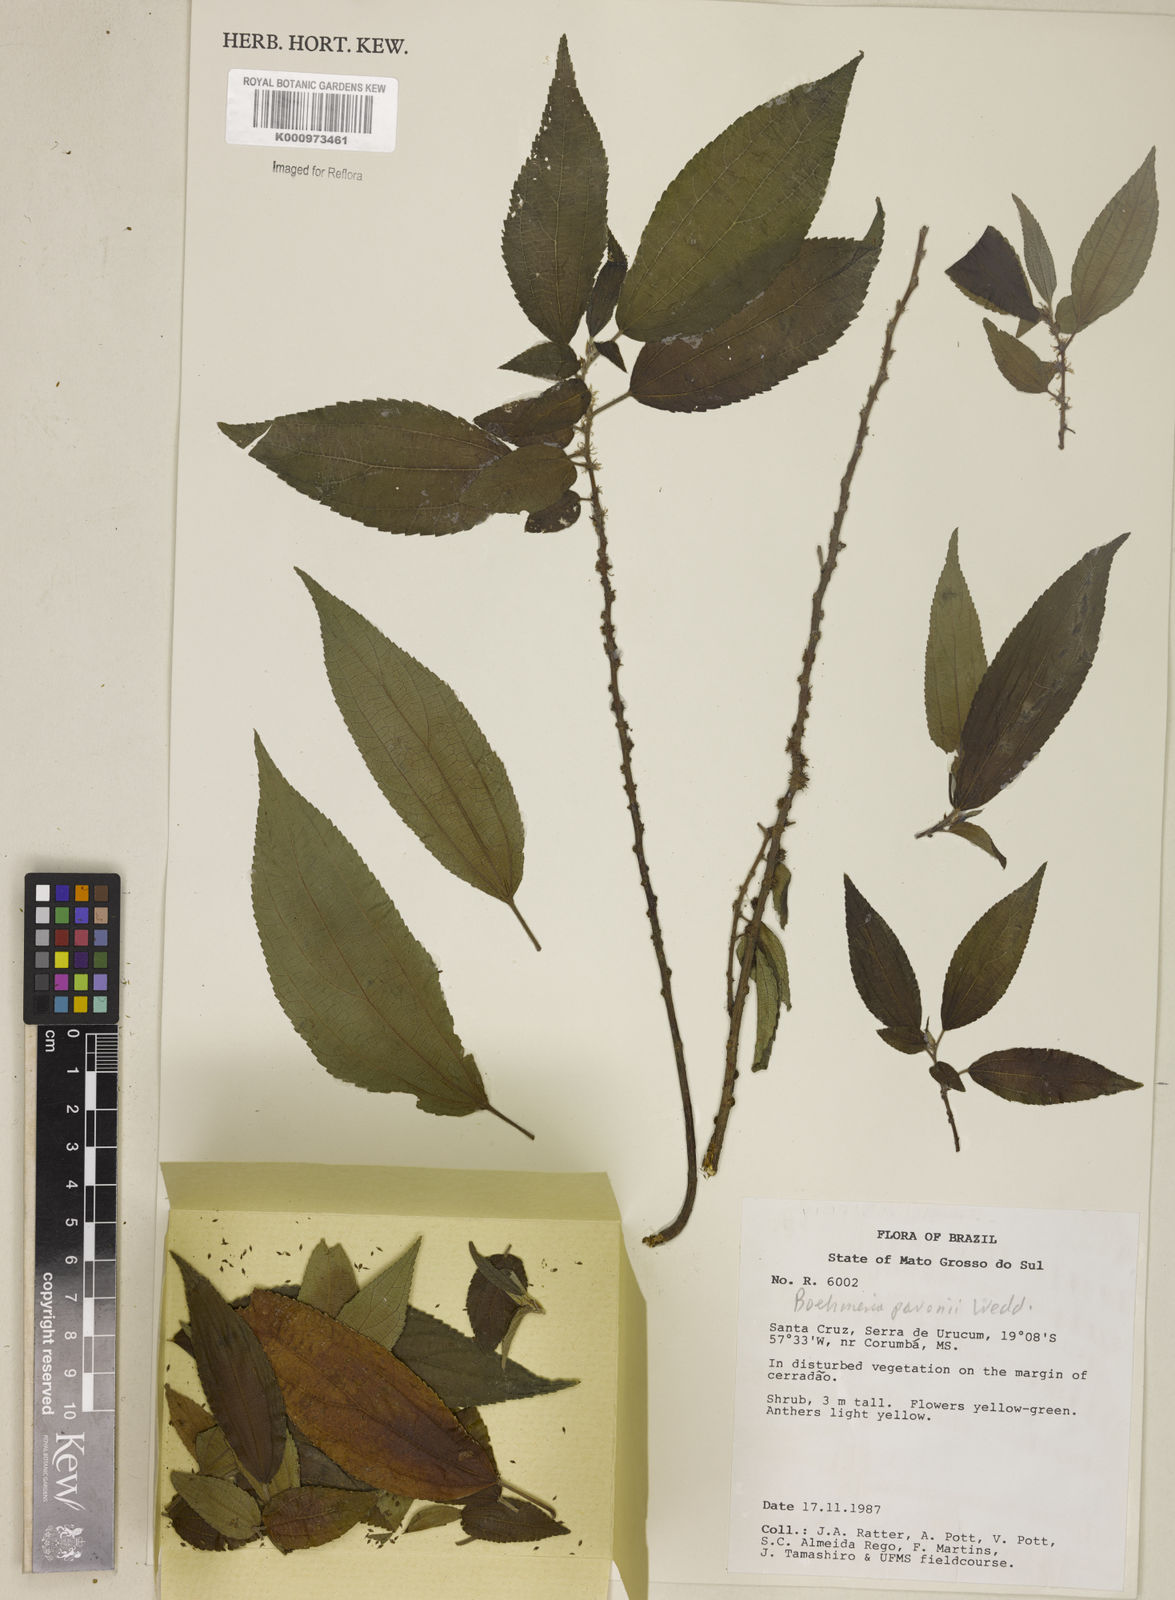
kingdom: Plantae
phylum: Tracheophyta
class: Magnoliopsida
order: Rosales
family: Urticaceae
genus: Boehmeria
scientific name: Boehmeria pavonii
